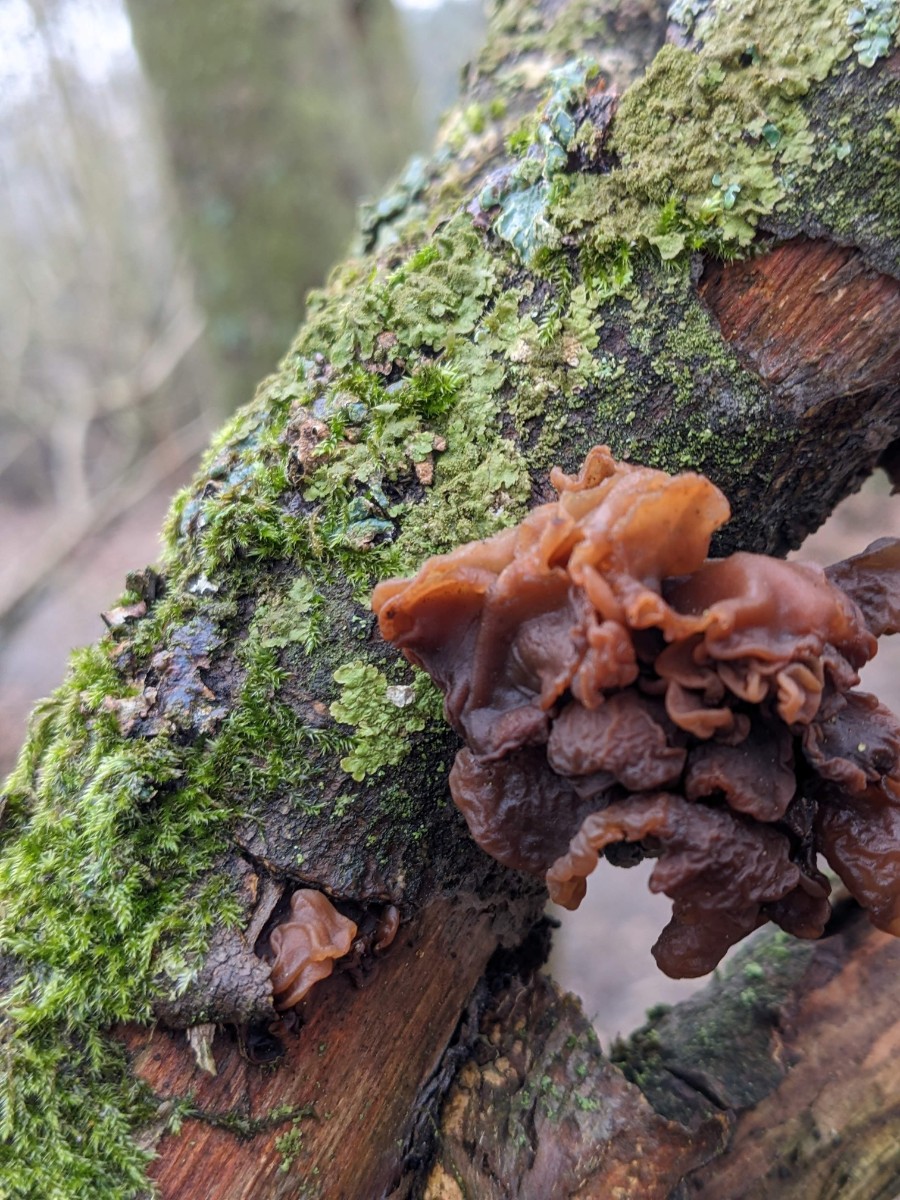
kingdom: Fungi
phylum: Basidiomycota
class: Tremellomycetes
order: Tremellales
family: Tremellaceae
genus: Phaeotremella
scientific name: Phaeotremella frondosa
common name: kæmpe-bævresvamp
